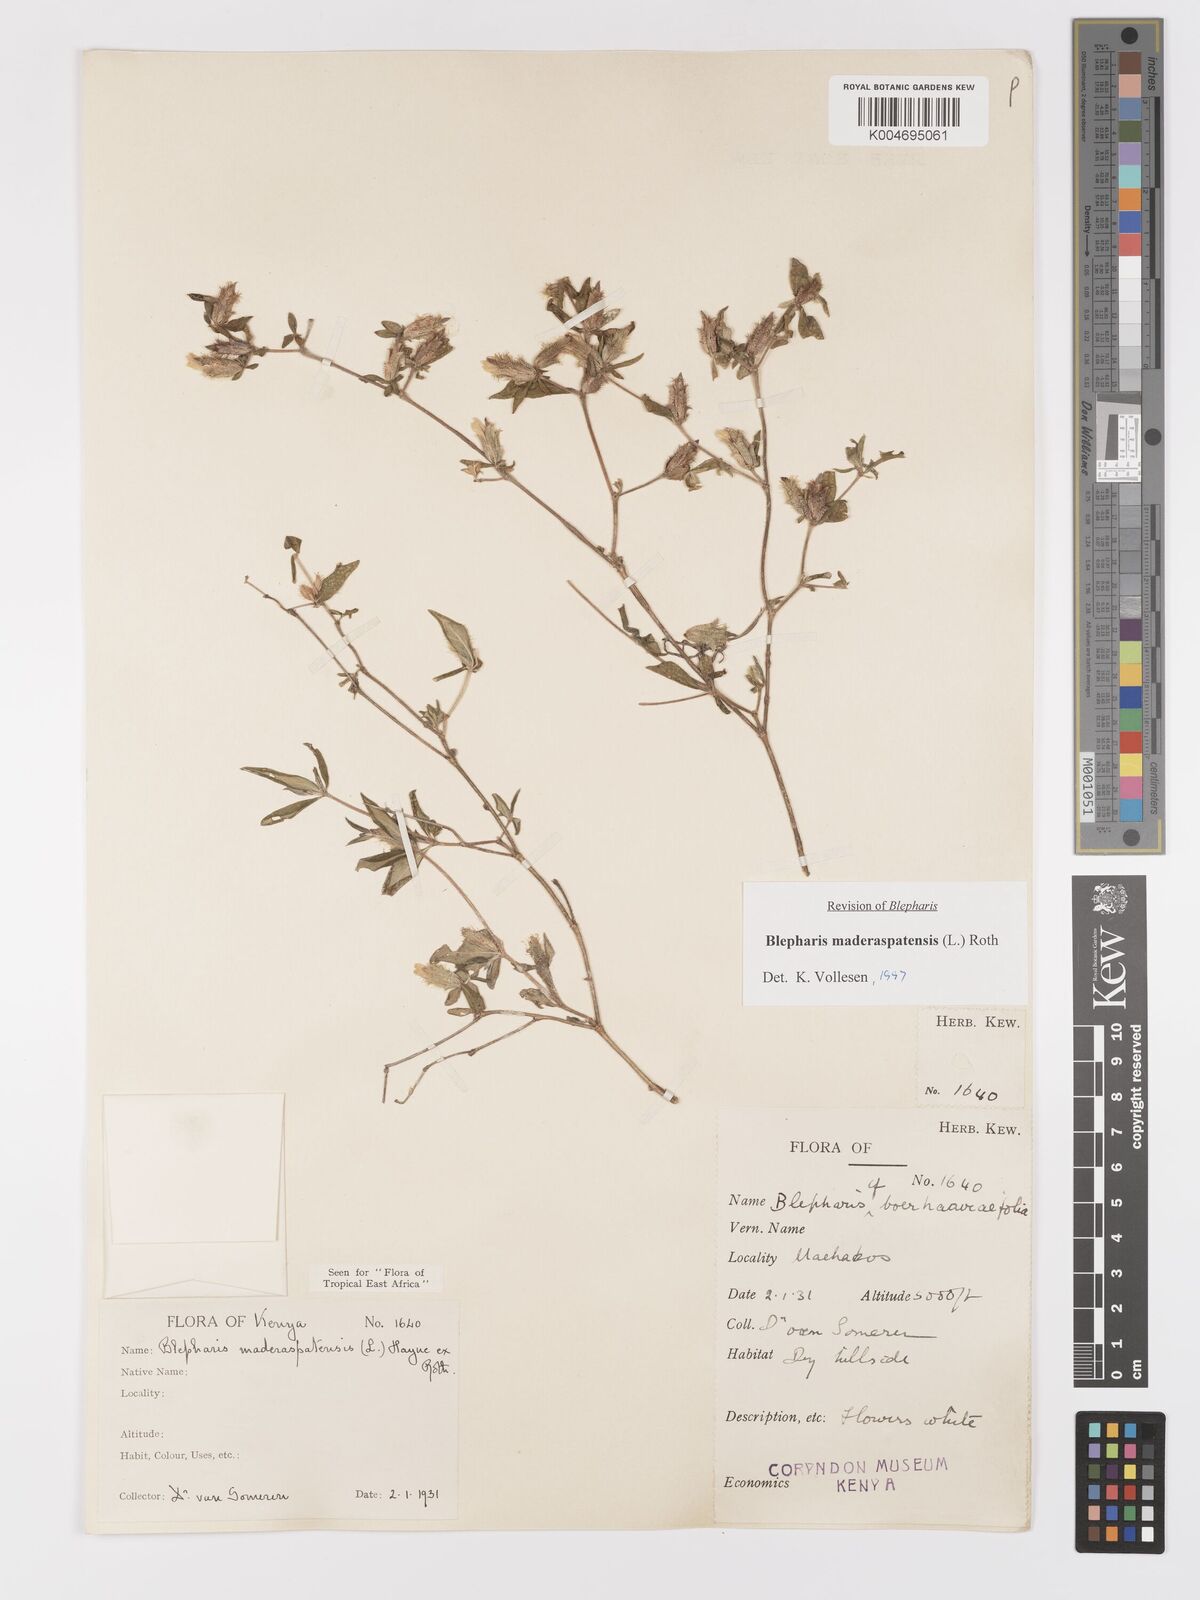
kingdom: Plantae
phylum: Tracheophyta
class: Magnoliopsida
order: Lamiales
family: Acanthaceae
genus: Blepharis
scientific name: Blepharis maderaspatensis
